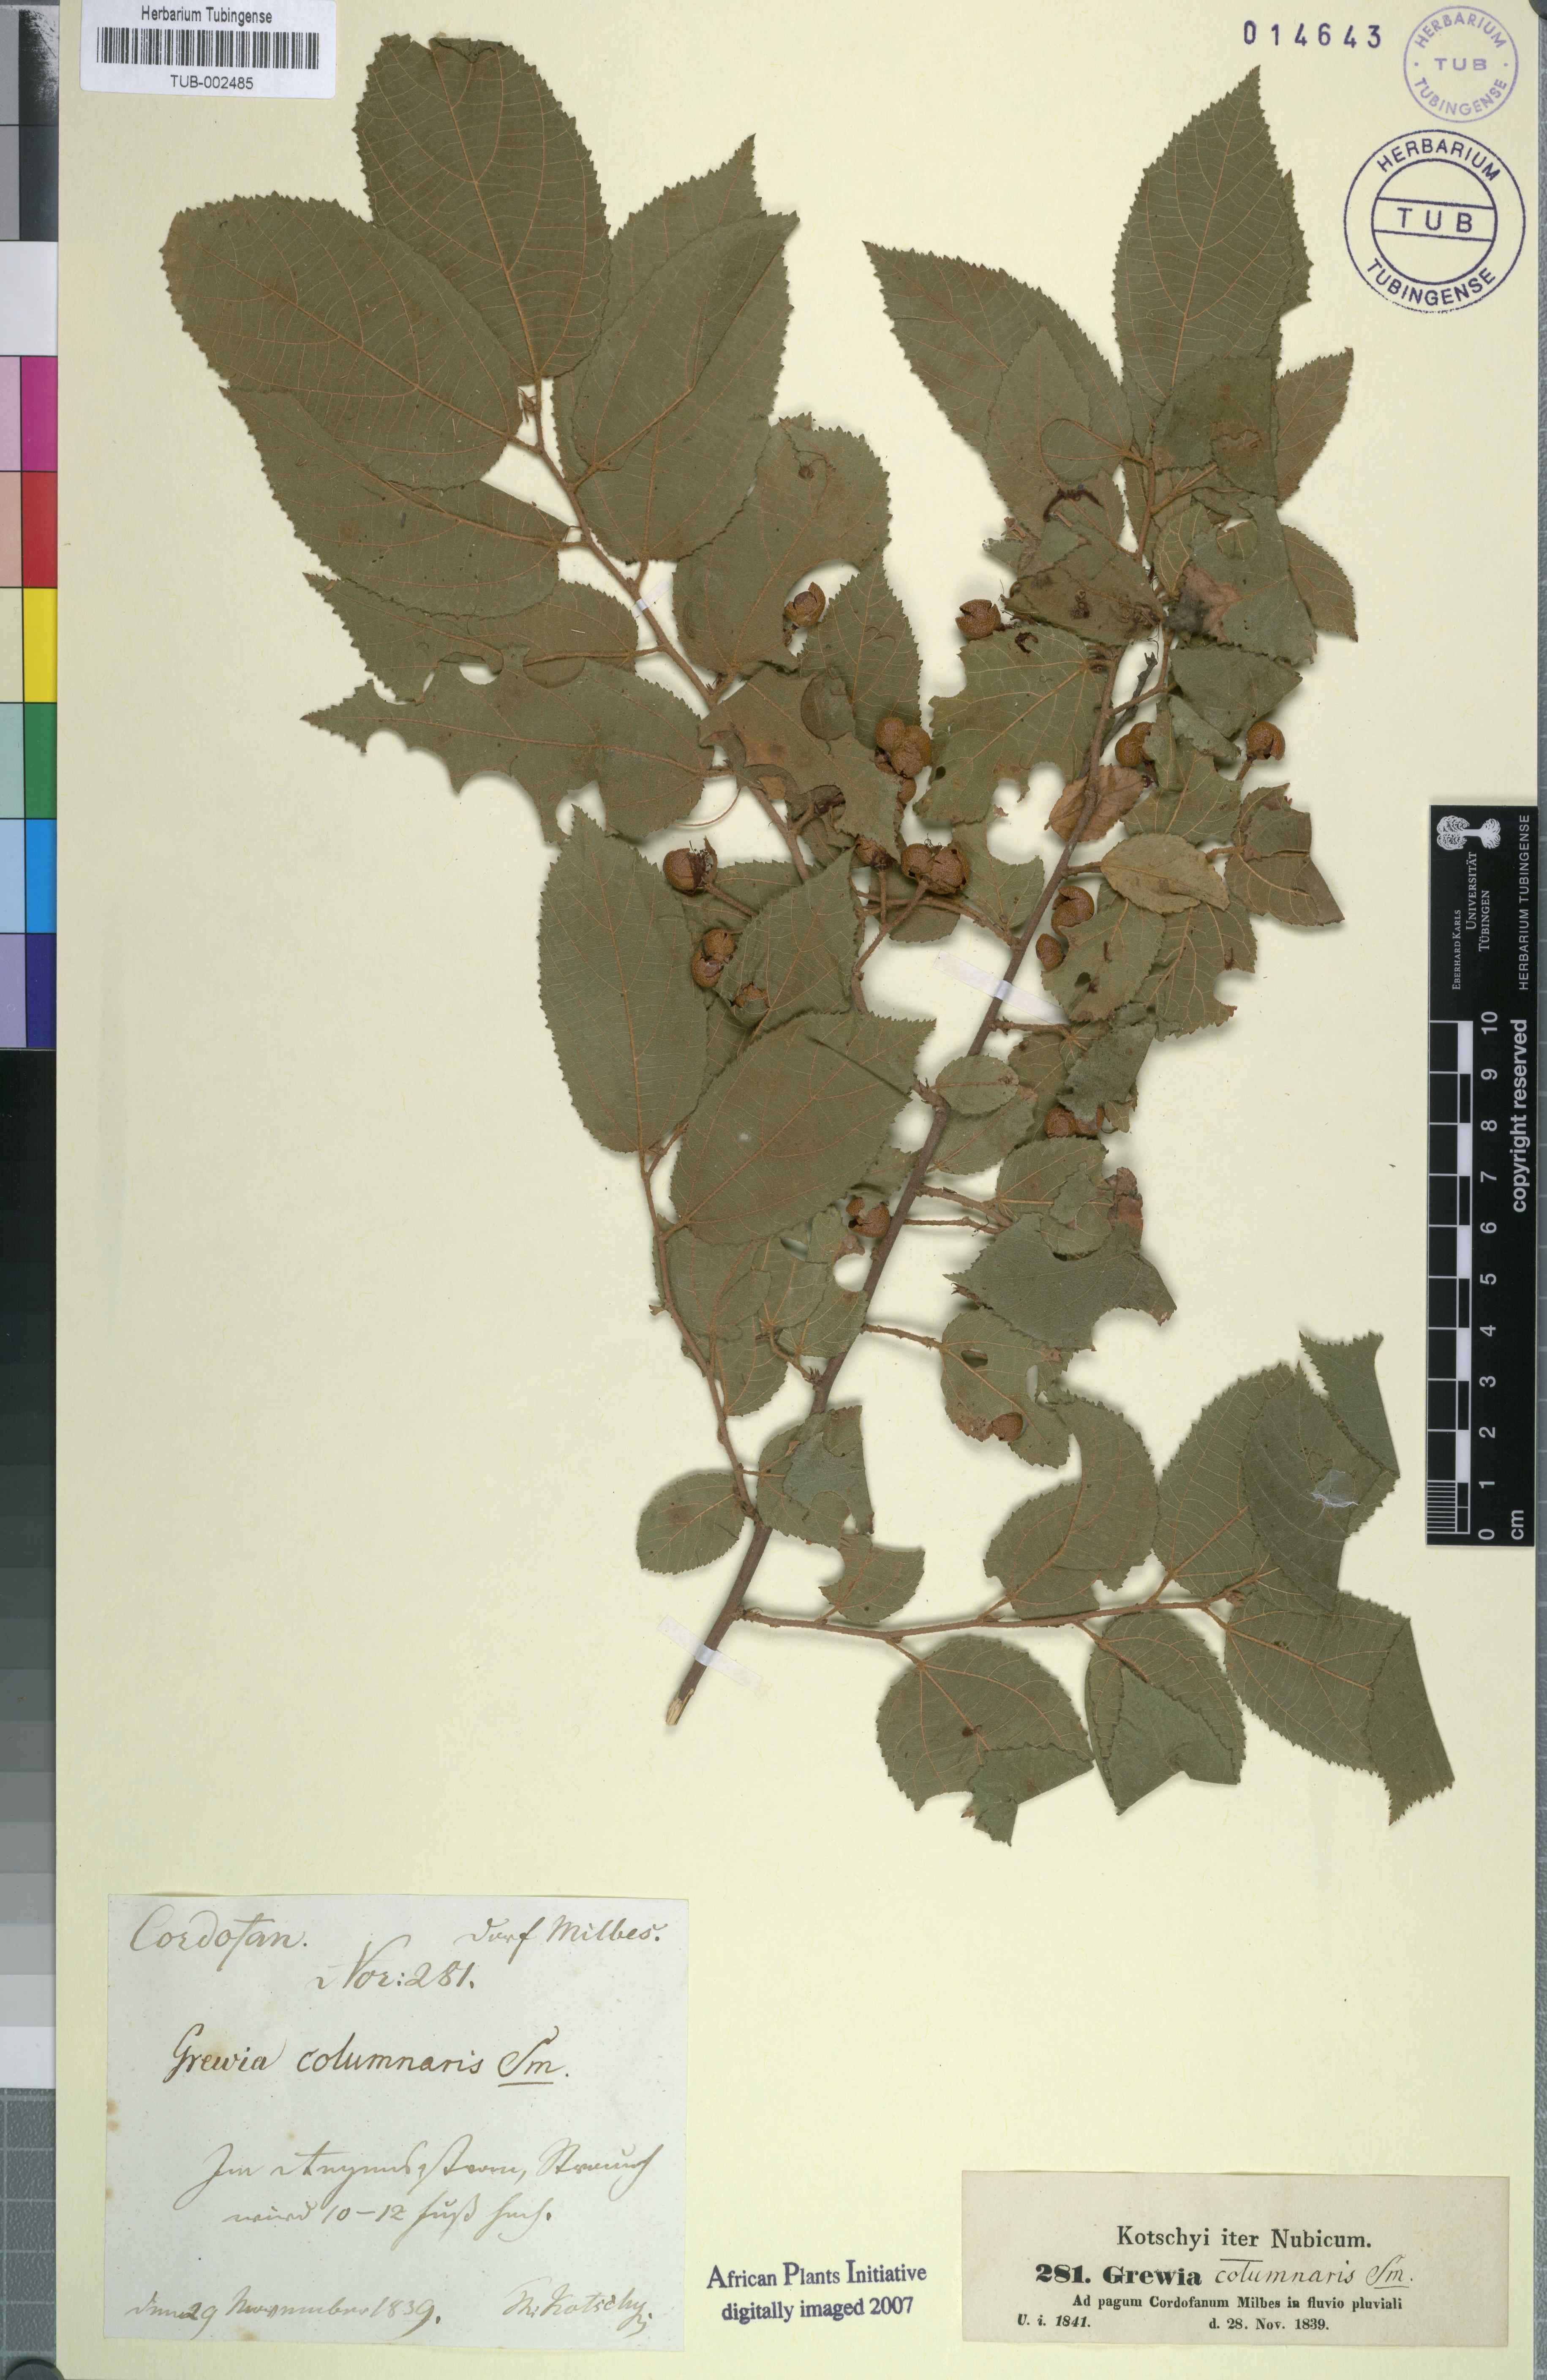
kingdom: Plantae
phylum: Tracheophyta
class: Magnoliopsida
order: Malvales
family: Malvaceae
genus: Grewia
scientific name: Grewia orientalis
